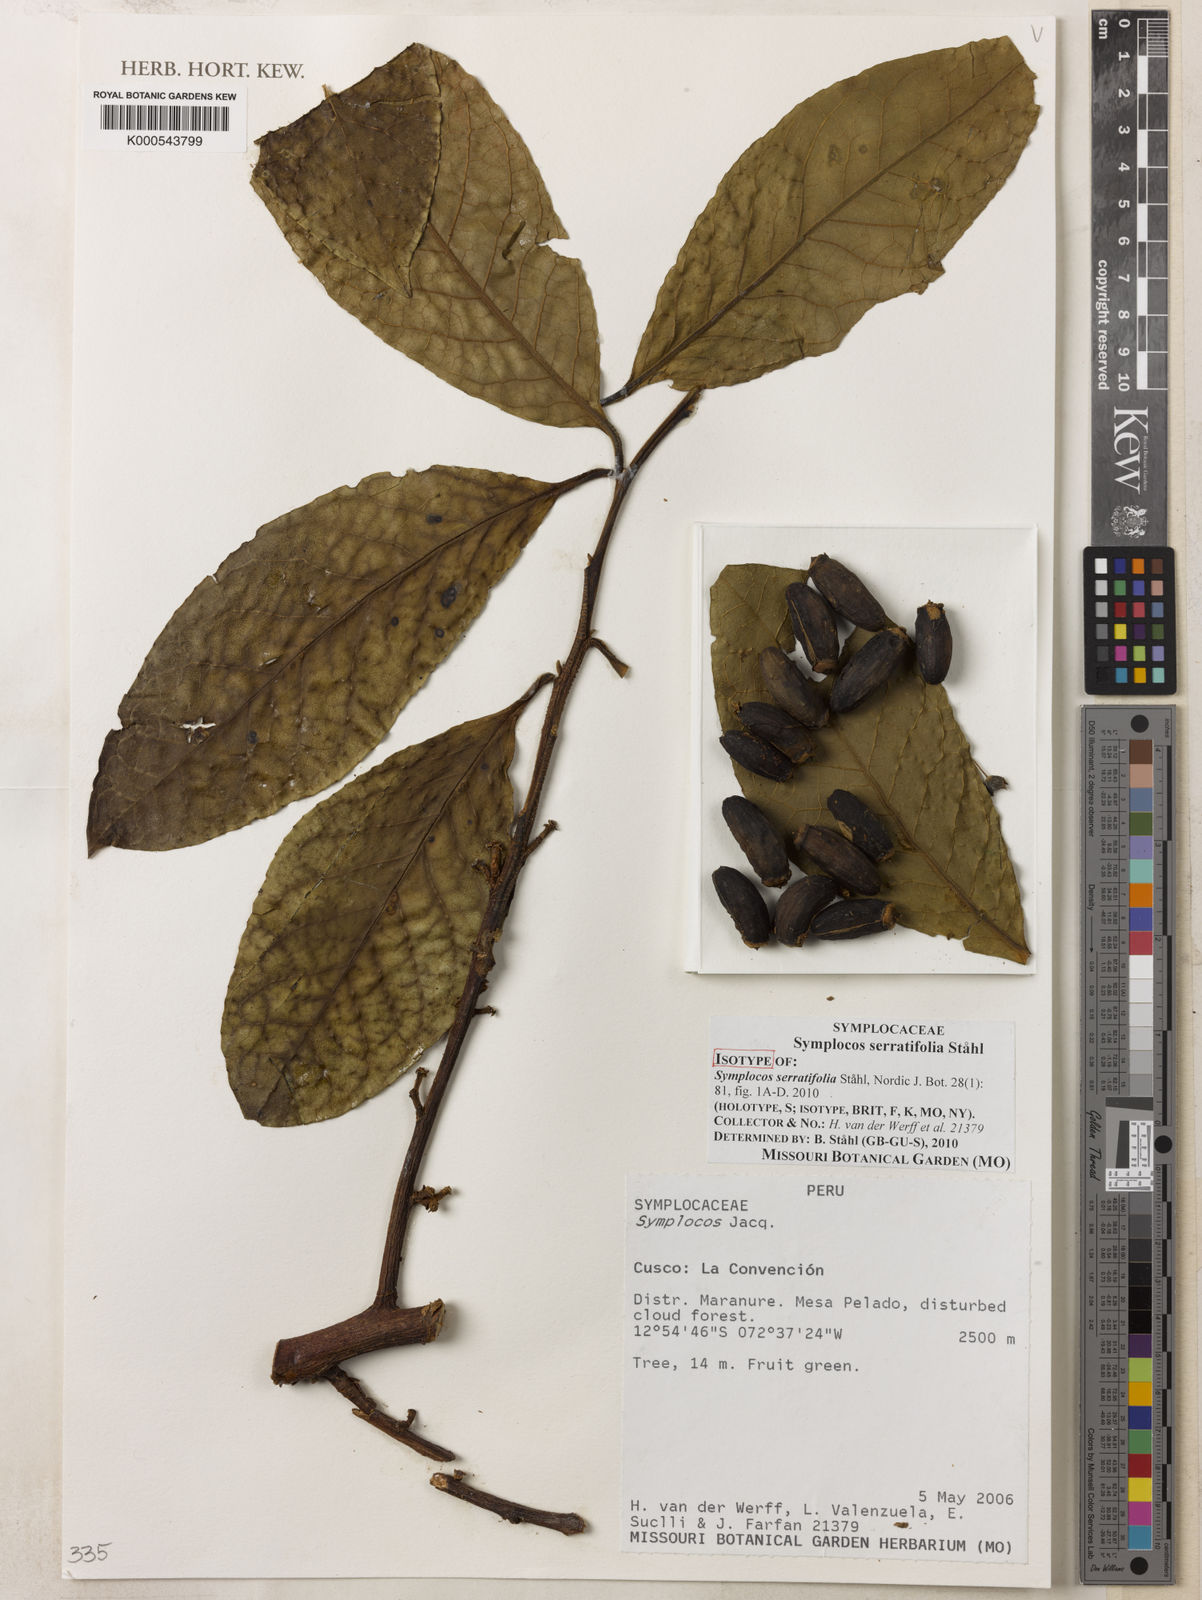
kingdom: Plantae
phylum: Tracheophyta
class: Magnoliopsida
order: Ericales
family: Symplocaceae
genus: Symplocos
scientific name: Symplocos
